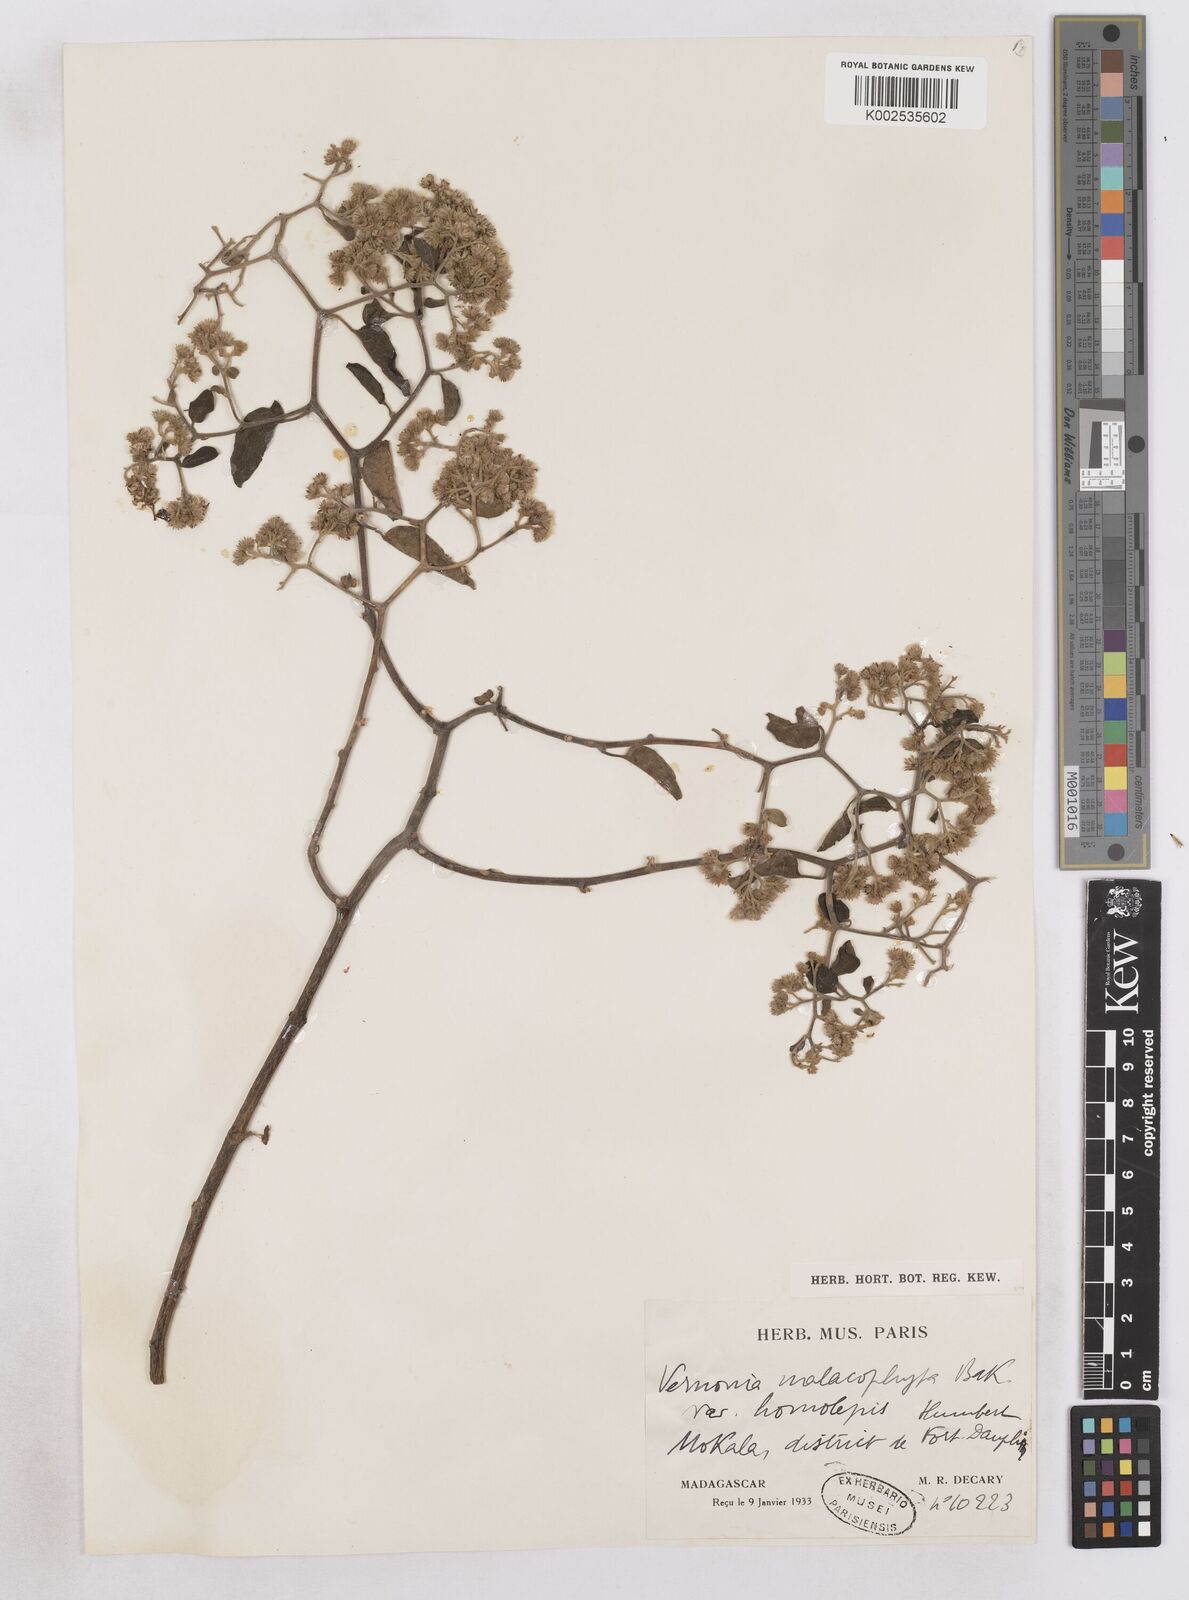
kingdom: Plantae
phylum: Tracheophyta
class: Magnoliopsida
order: Asterales
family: Asteraceae
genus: Distephanus
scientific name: Distephanus malacophytus
